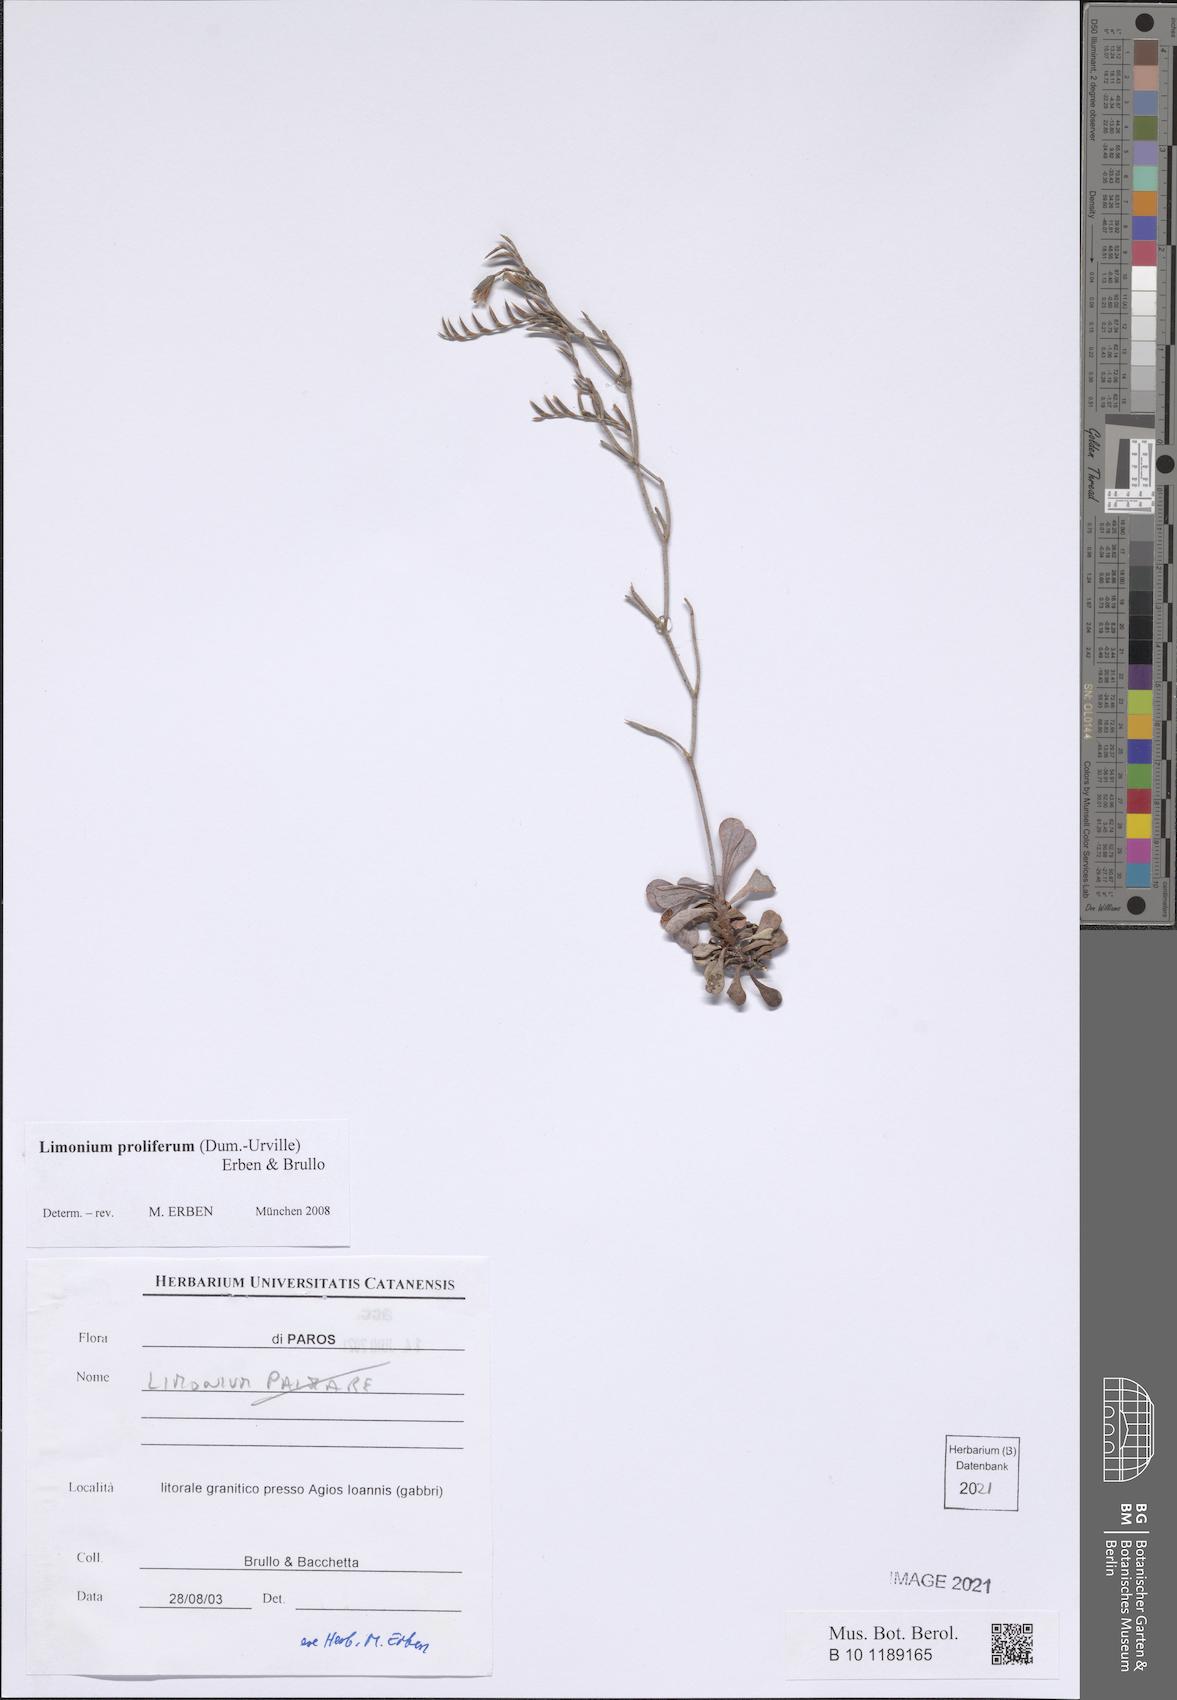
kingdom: Plantae
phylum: Tracheophyta
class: Magnoliopsida
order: Caryophyllales
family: Plumbaginaceae
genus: Limonium
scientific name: Limonium proliferum
